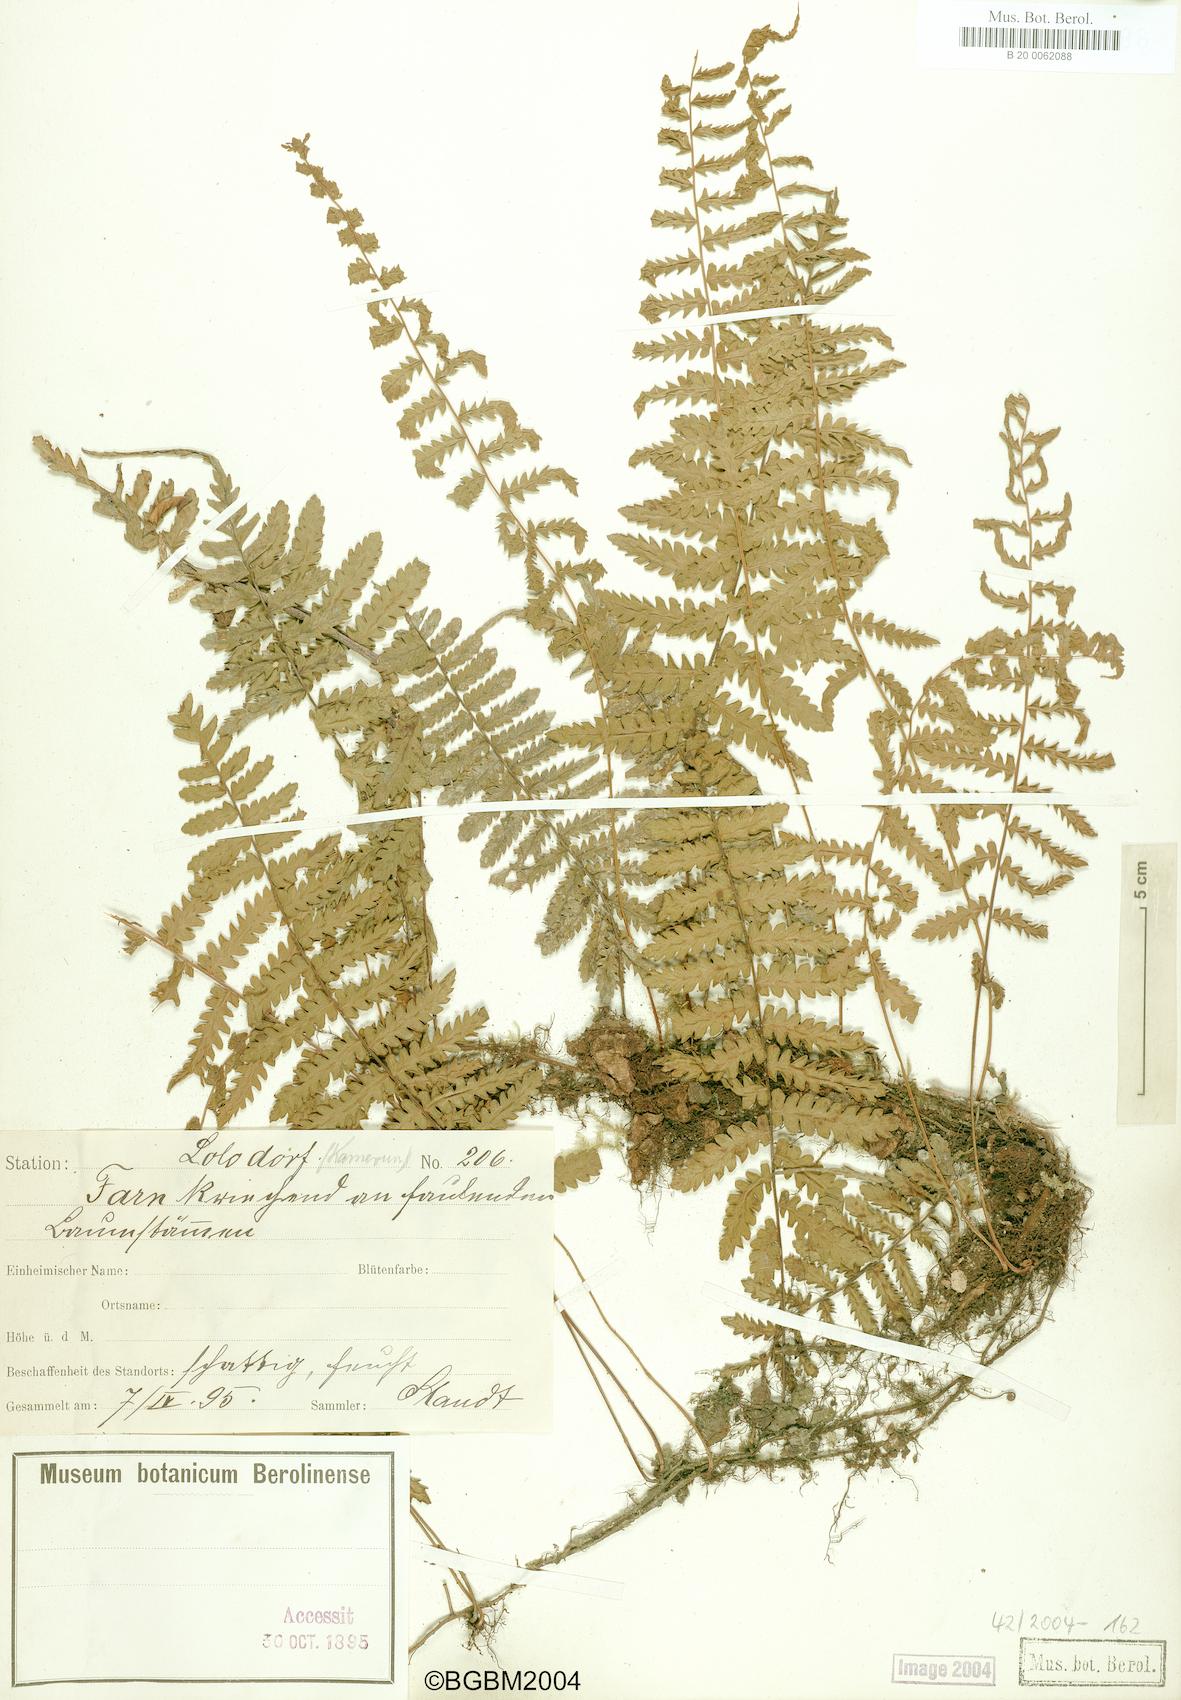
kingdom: Plantae
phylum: Tracheophyta
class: Polypodiopsida
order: Polypodiales
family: Tectariaceae
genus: Arthropteris
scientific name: Arthropteris orientalis
